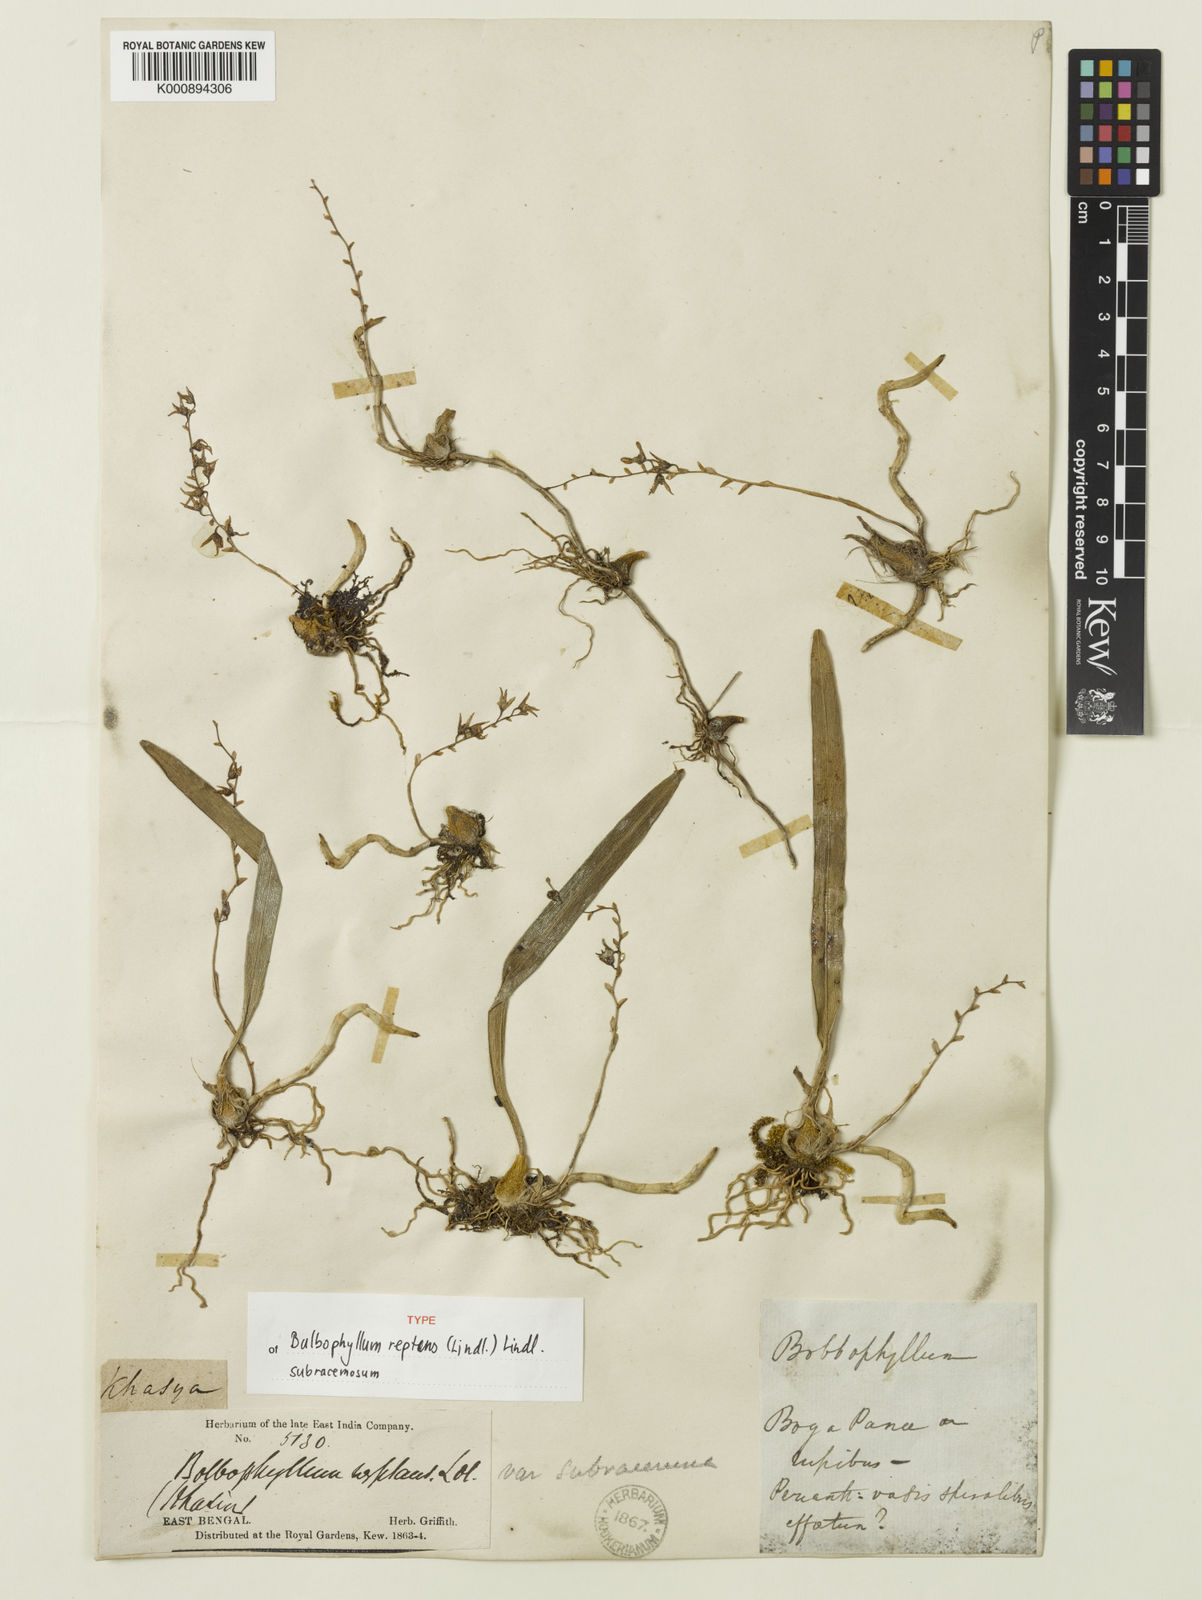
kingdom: Plantae
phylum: Tracheophyta
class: Liliopsida
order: Asparagales
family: Orchidaceae
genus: Bulbophyllum
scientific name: Bulbophyllum reptans
